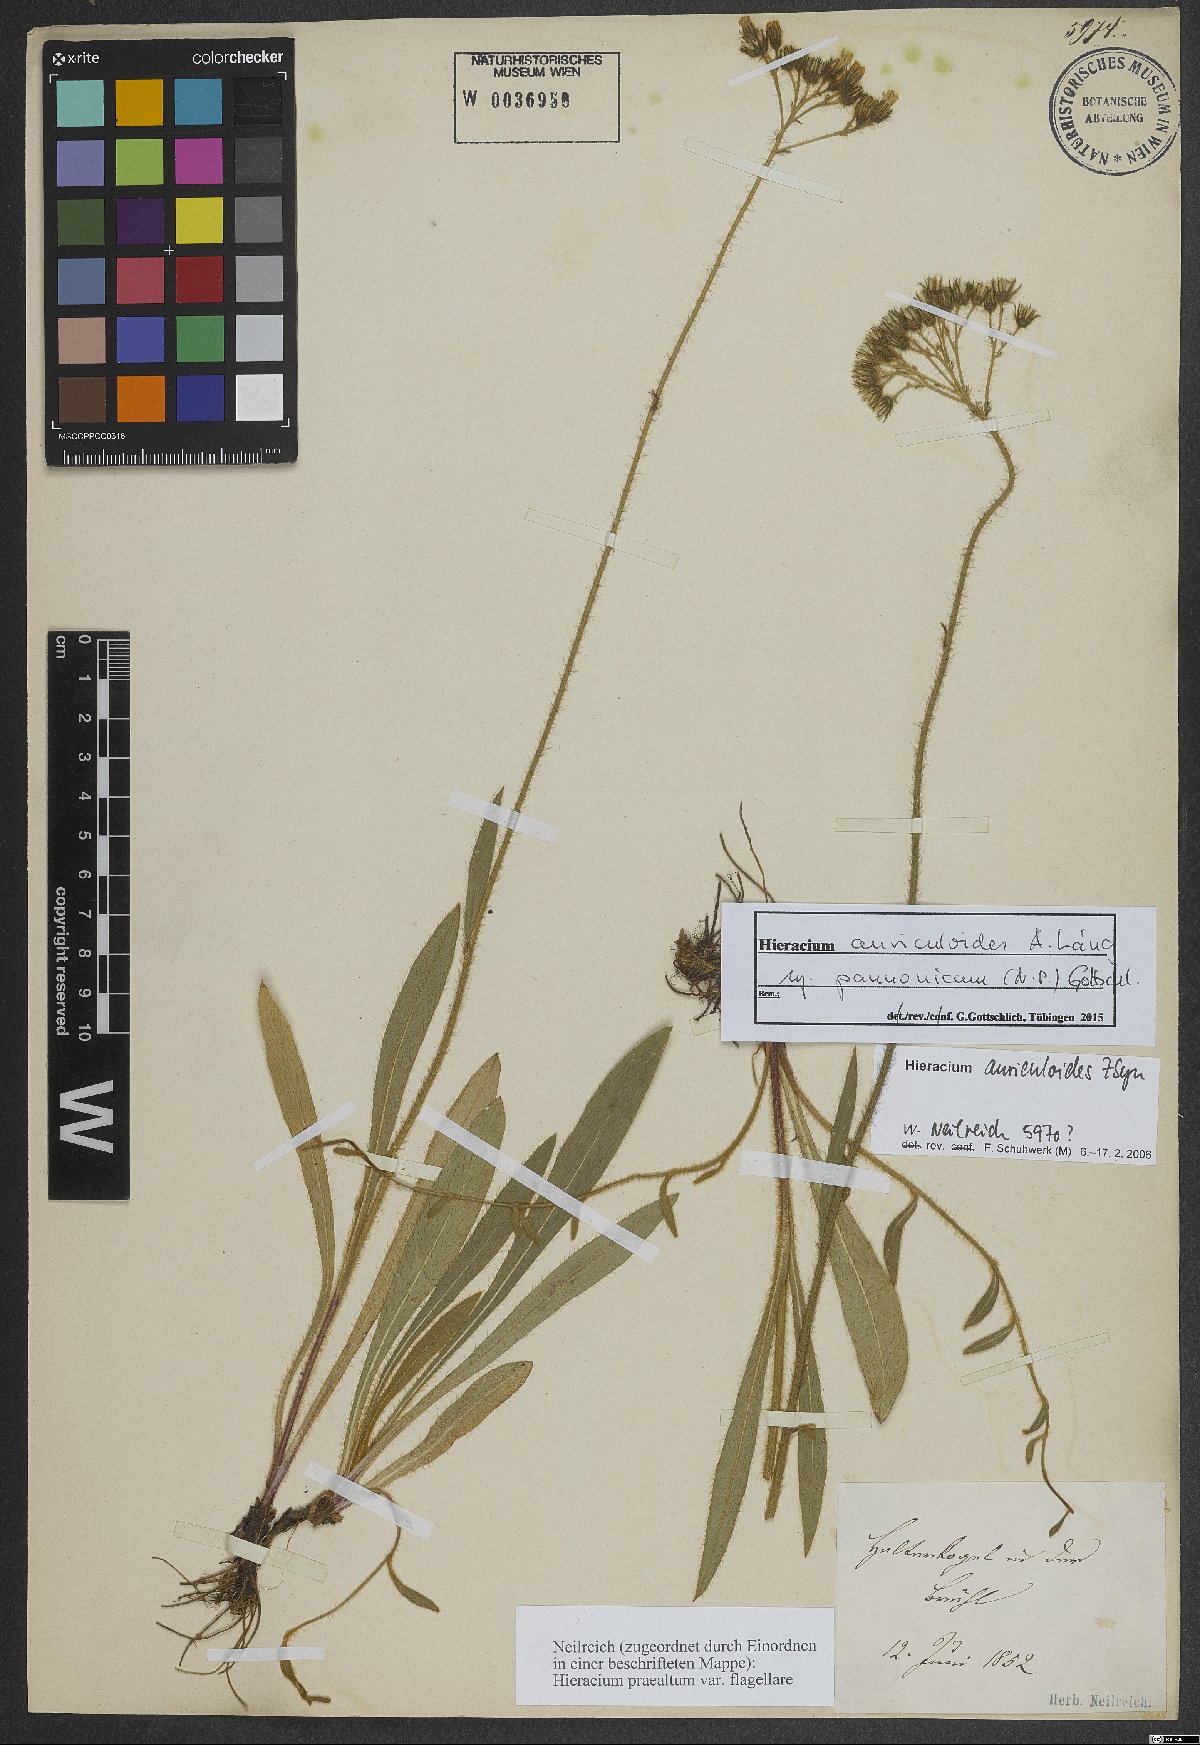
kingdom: Plantae
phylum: Tracheophyta
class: Magnoliopsida
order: Asterales
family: Asteraceae
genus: Pilosella
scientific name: Pilosella auriculoides
